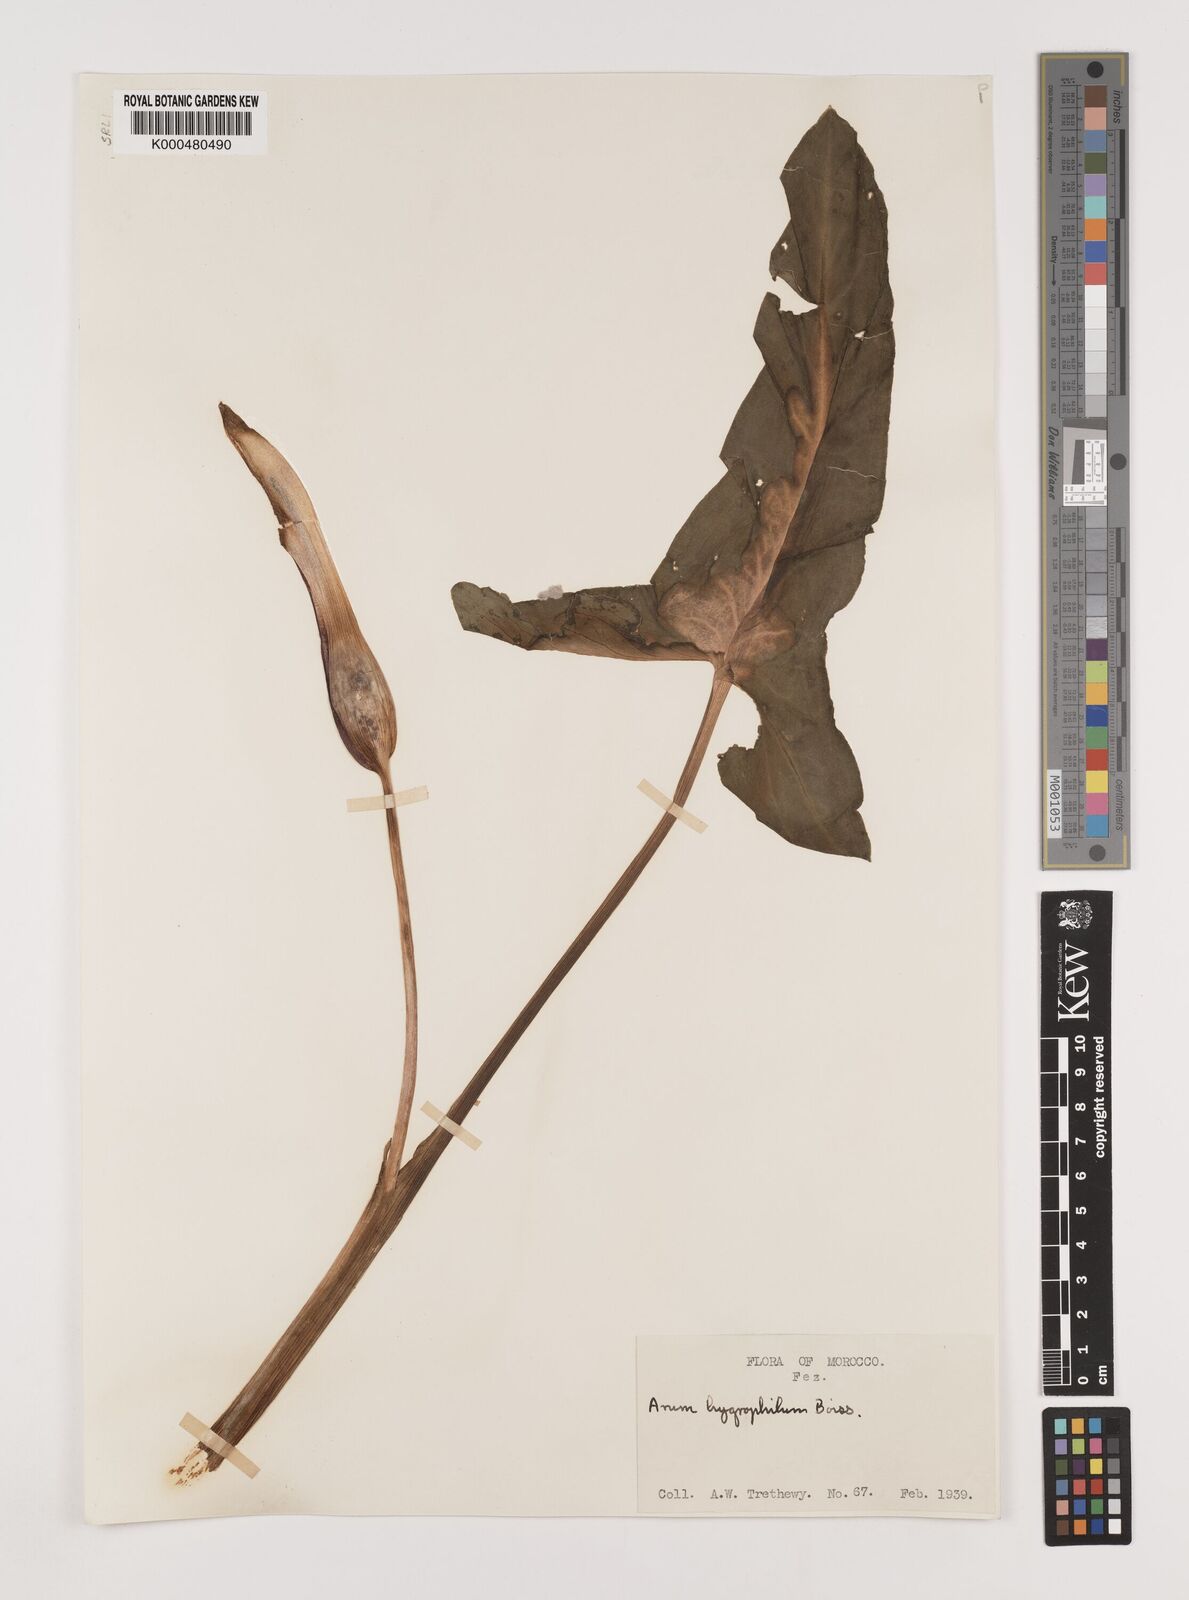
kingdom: Plantae
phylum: Tracheophyta
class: Liliopsida
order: Alismatales
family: Araceae
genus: Arum
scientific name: Arum hygrophilum
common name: Water arum
